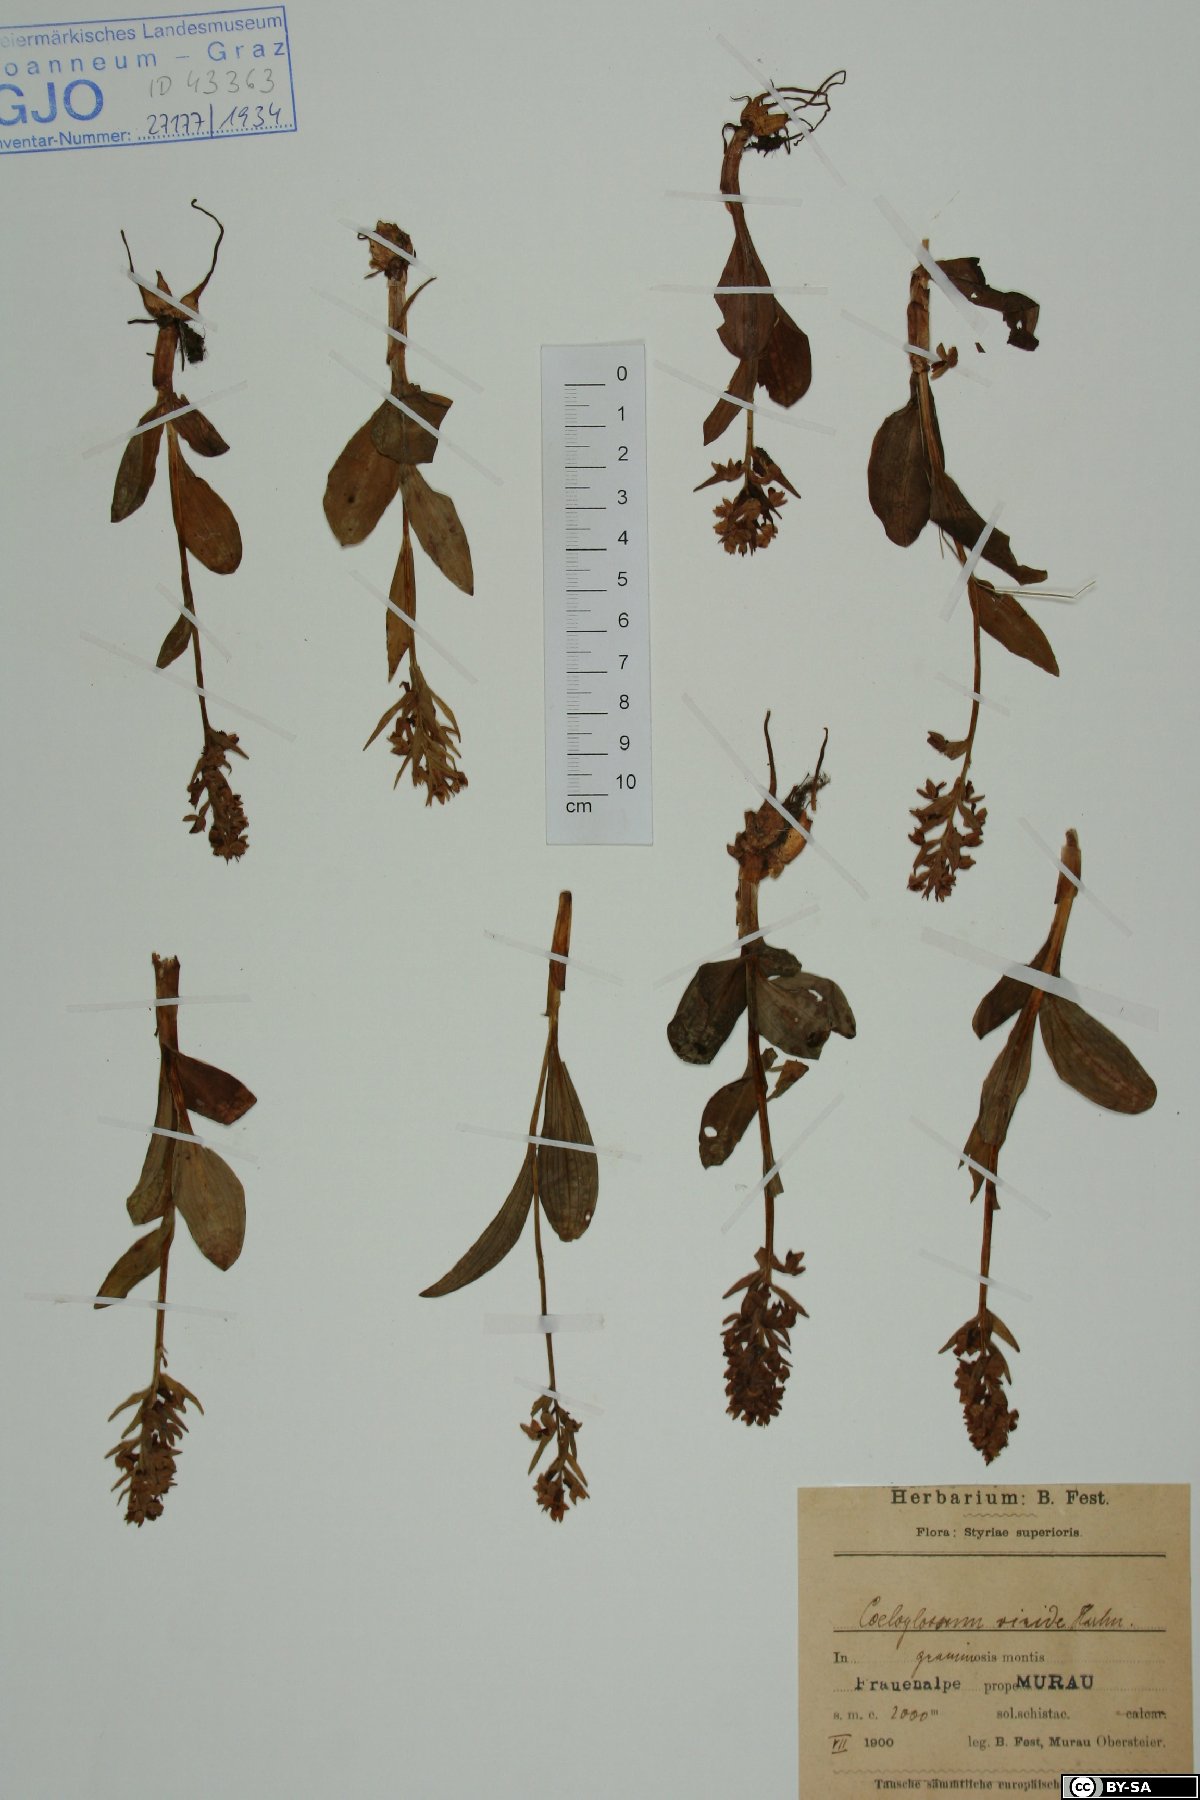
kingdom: Plantae
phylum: Tracheophyta
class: Liliopsida
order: Asparagales
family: Orchidaceae
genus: Dactylorhiza
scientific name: Dactylorhiza viridis
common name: Longbract frog orchid
